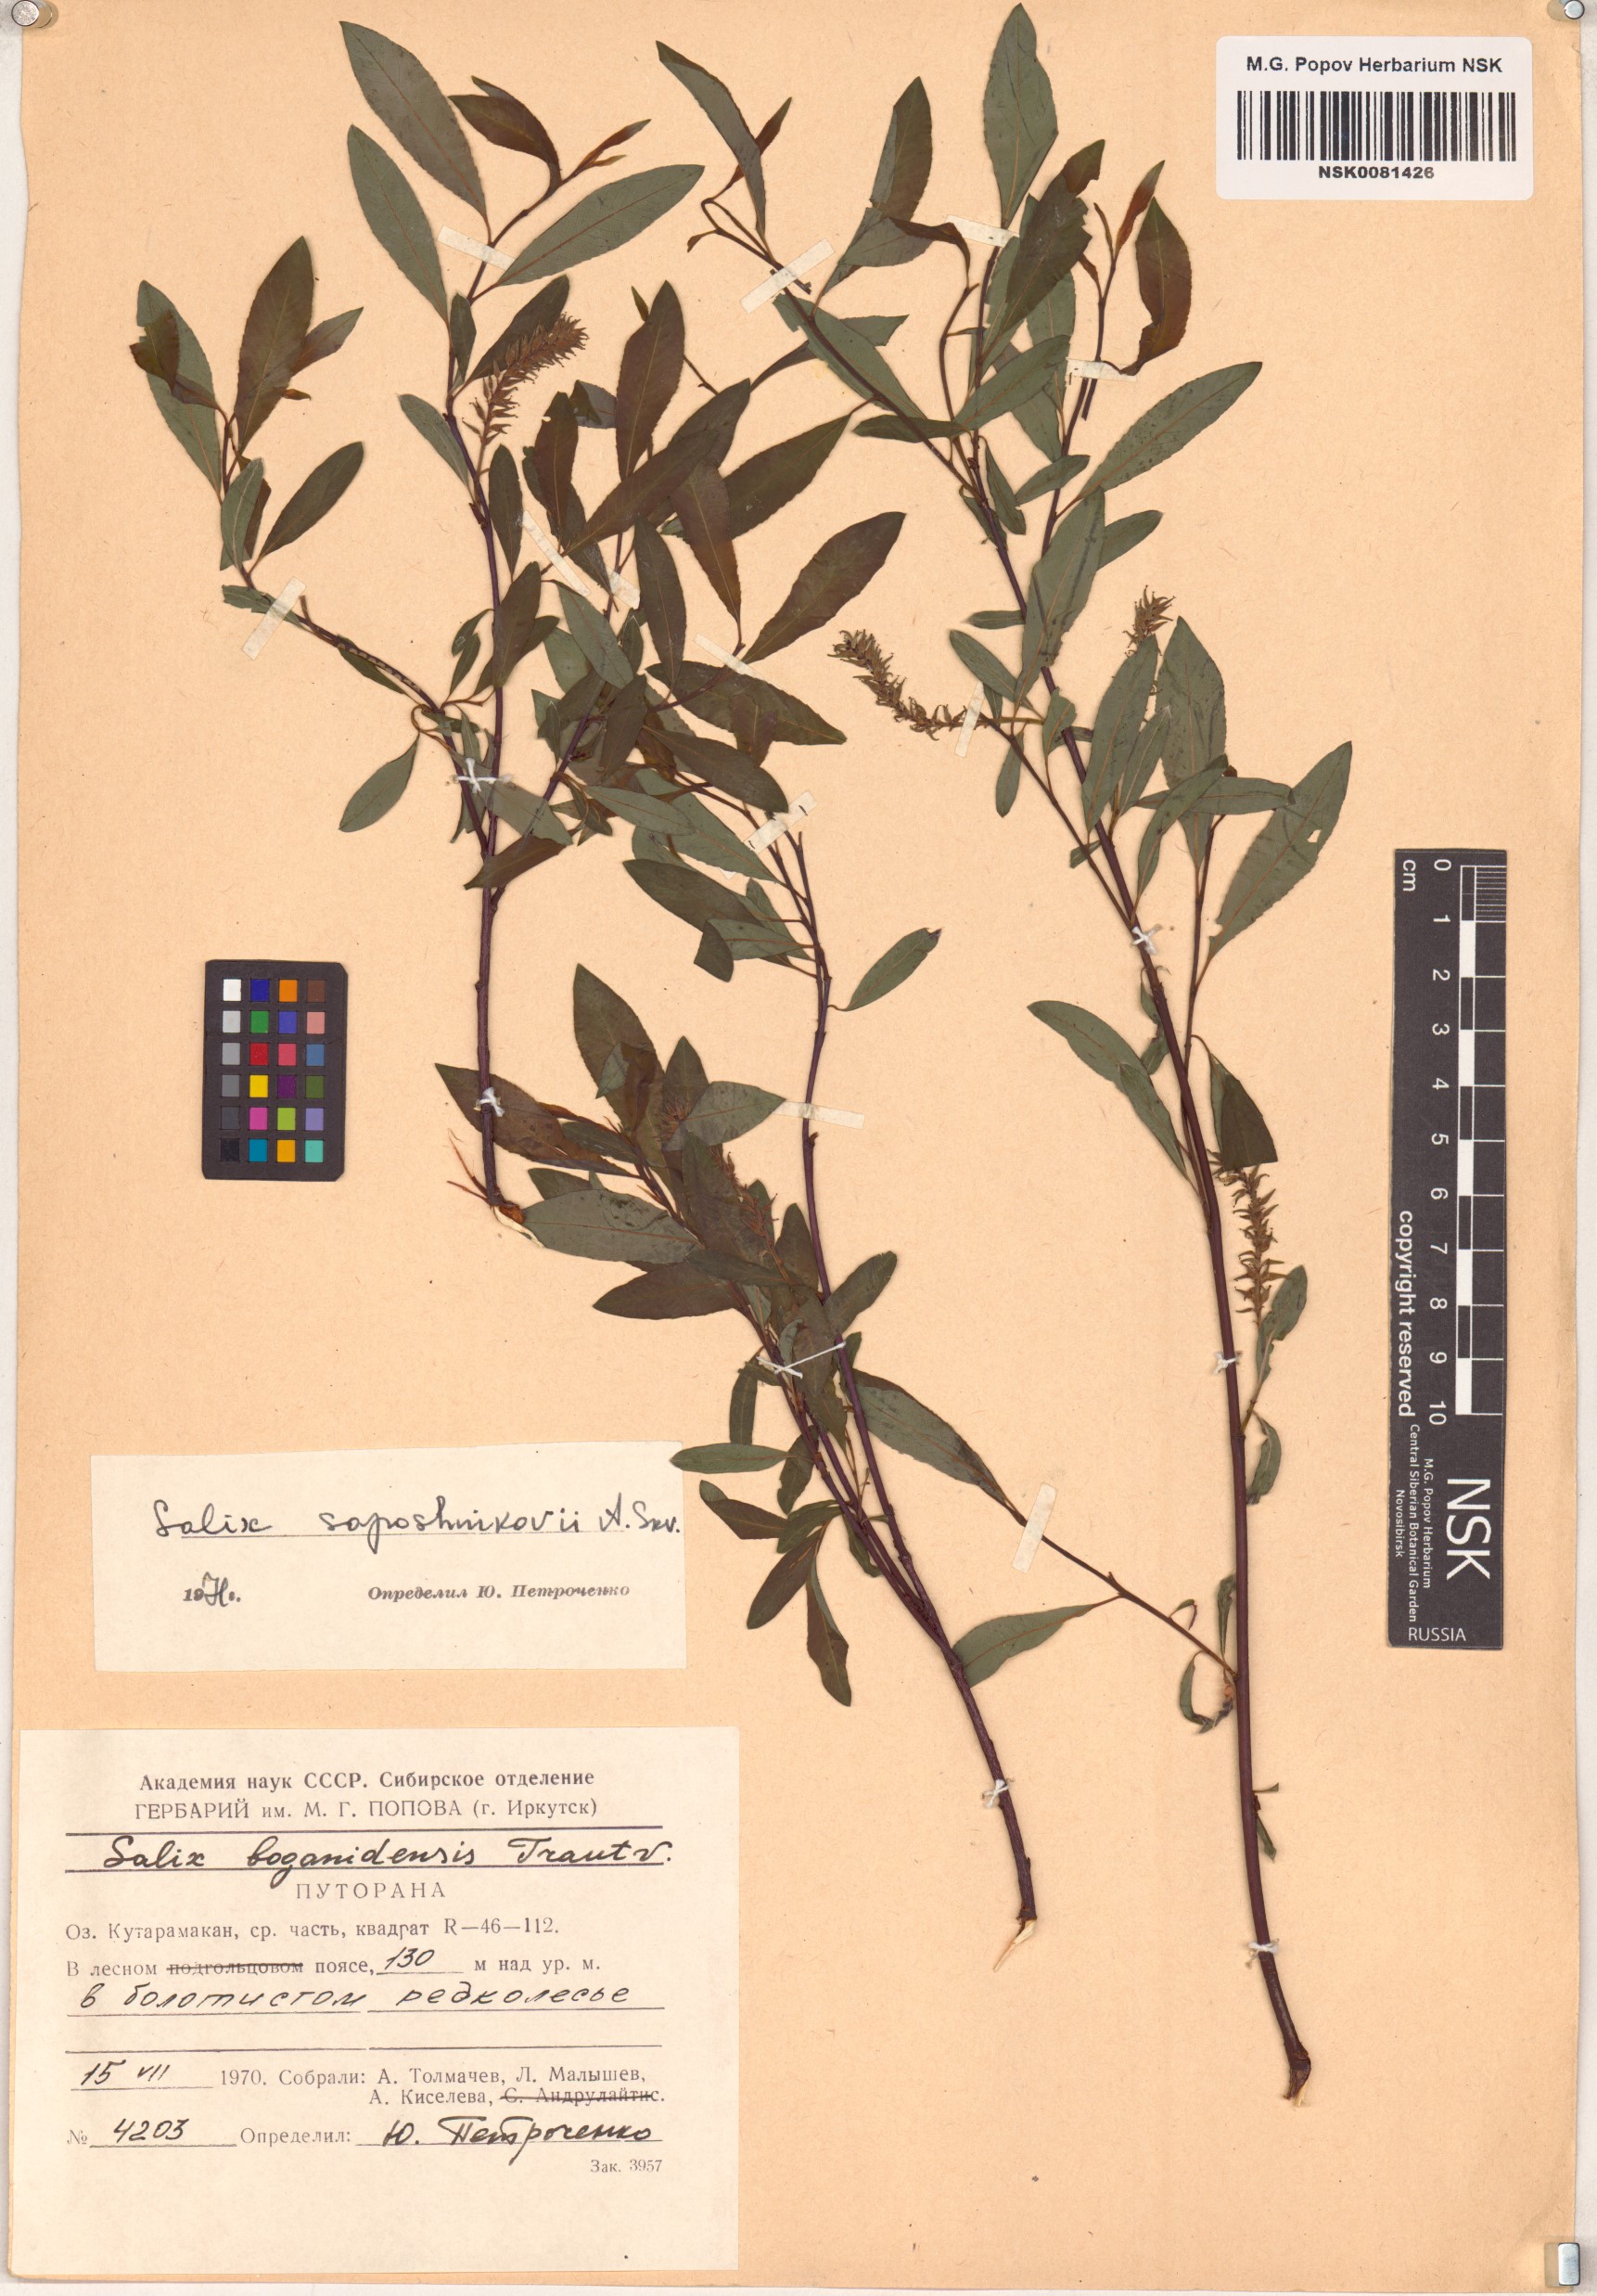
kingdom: Plantae
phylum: Tracheophyta
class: Magnoliopsida
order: Malpighiales
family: Salicaceae
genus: Salix
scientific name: Salix saposhnikovii
